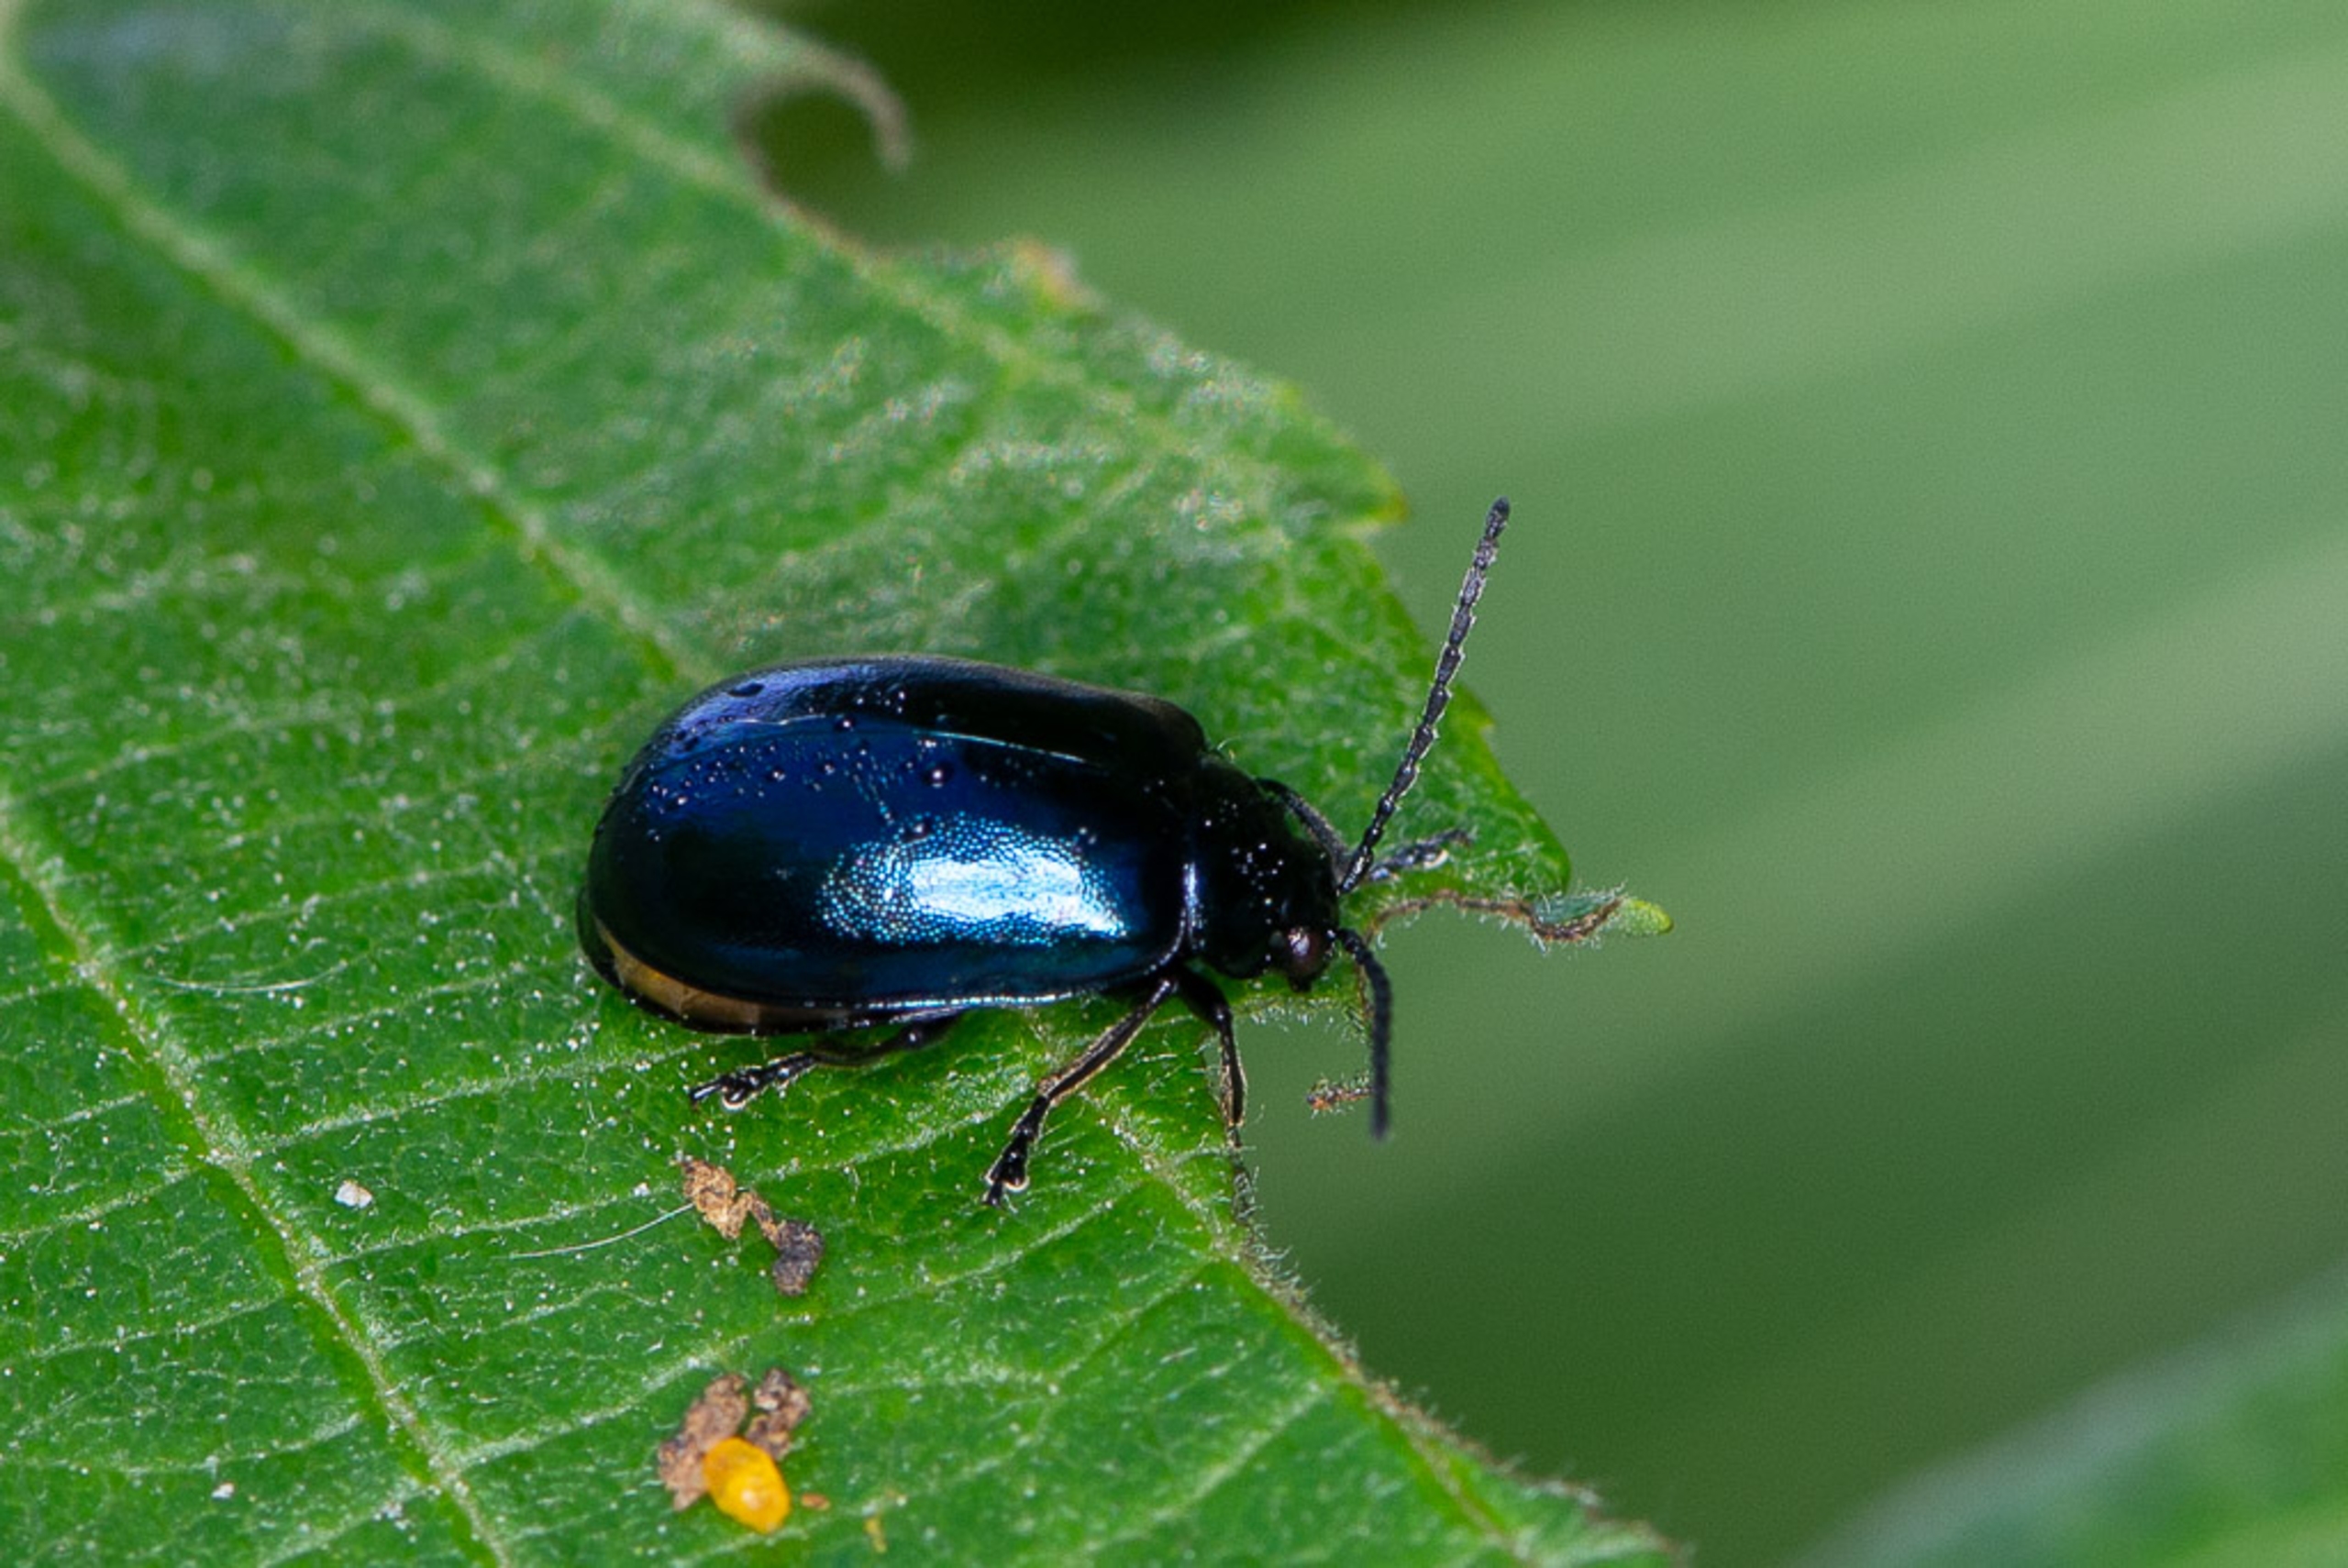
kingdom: Animalia
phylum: Arthropoda
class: Insecta
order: Coleoptera
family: Chrysomelidae
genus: Agelastica
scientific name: Agelastica alni
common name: Ellebladbille
